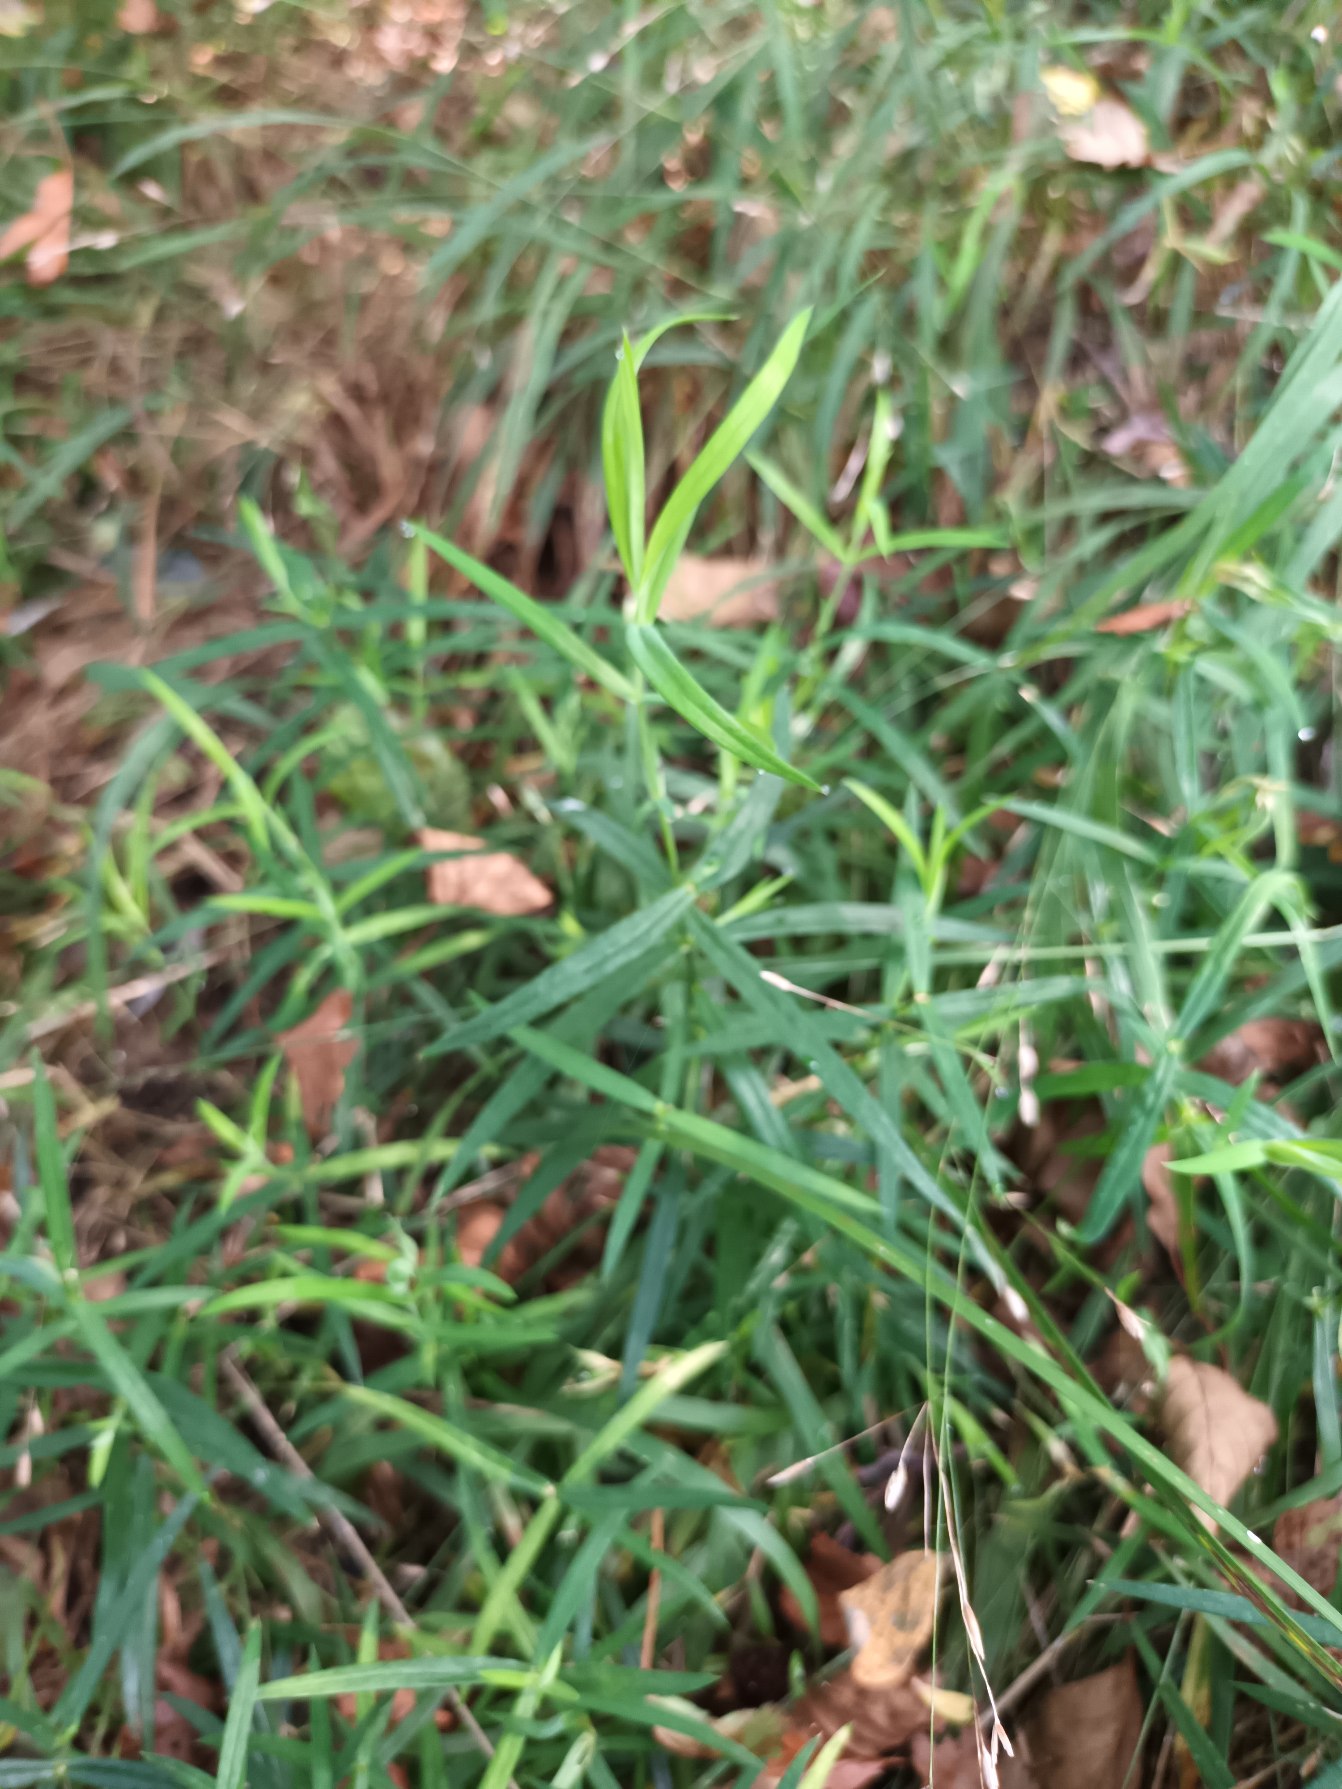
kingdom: Plantae
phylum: Tracheophyta
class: Magnoliopsida
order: Caryophyllales
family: Caryophyllaceae
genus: Rabelera
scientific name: Rabelera holostea
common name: Stor fladstjerne
